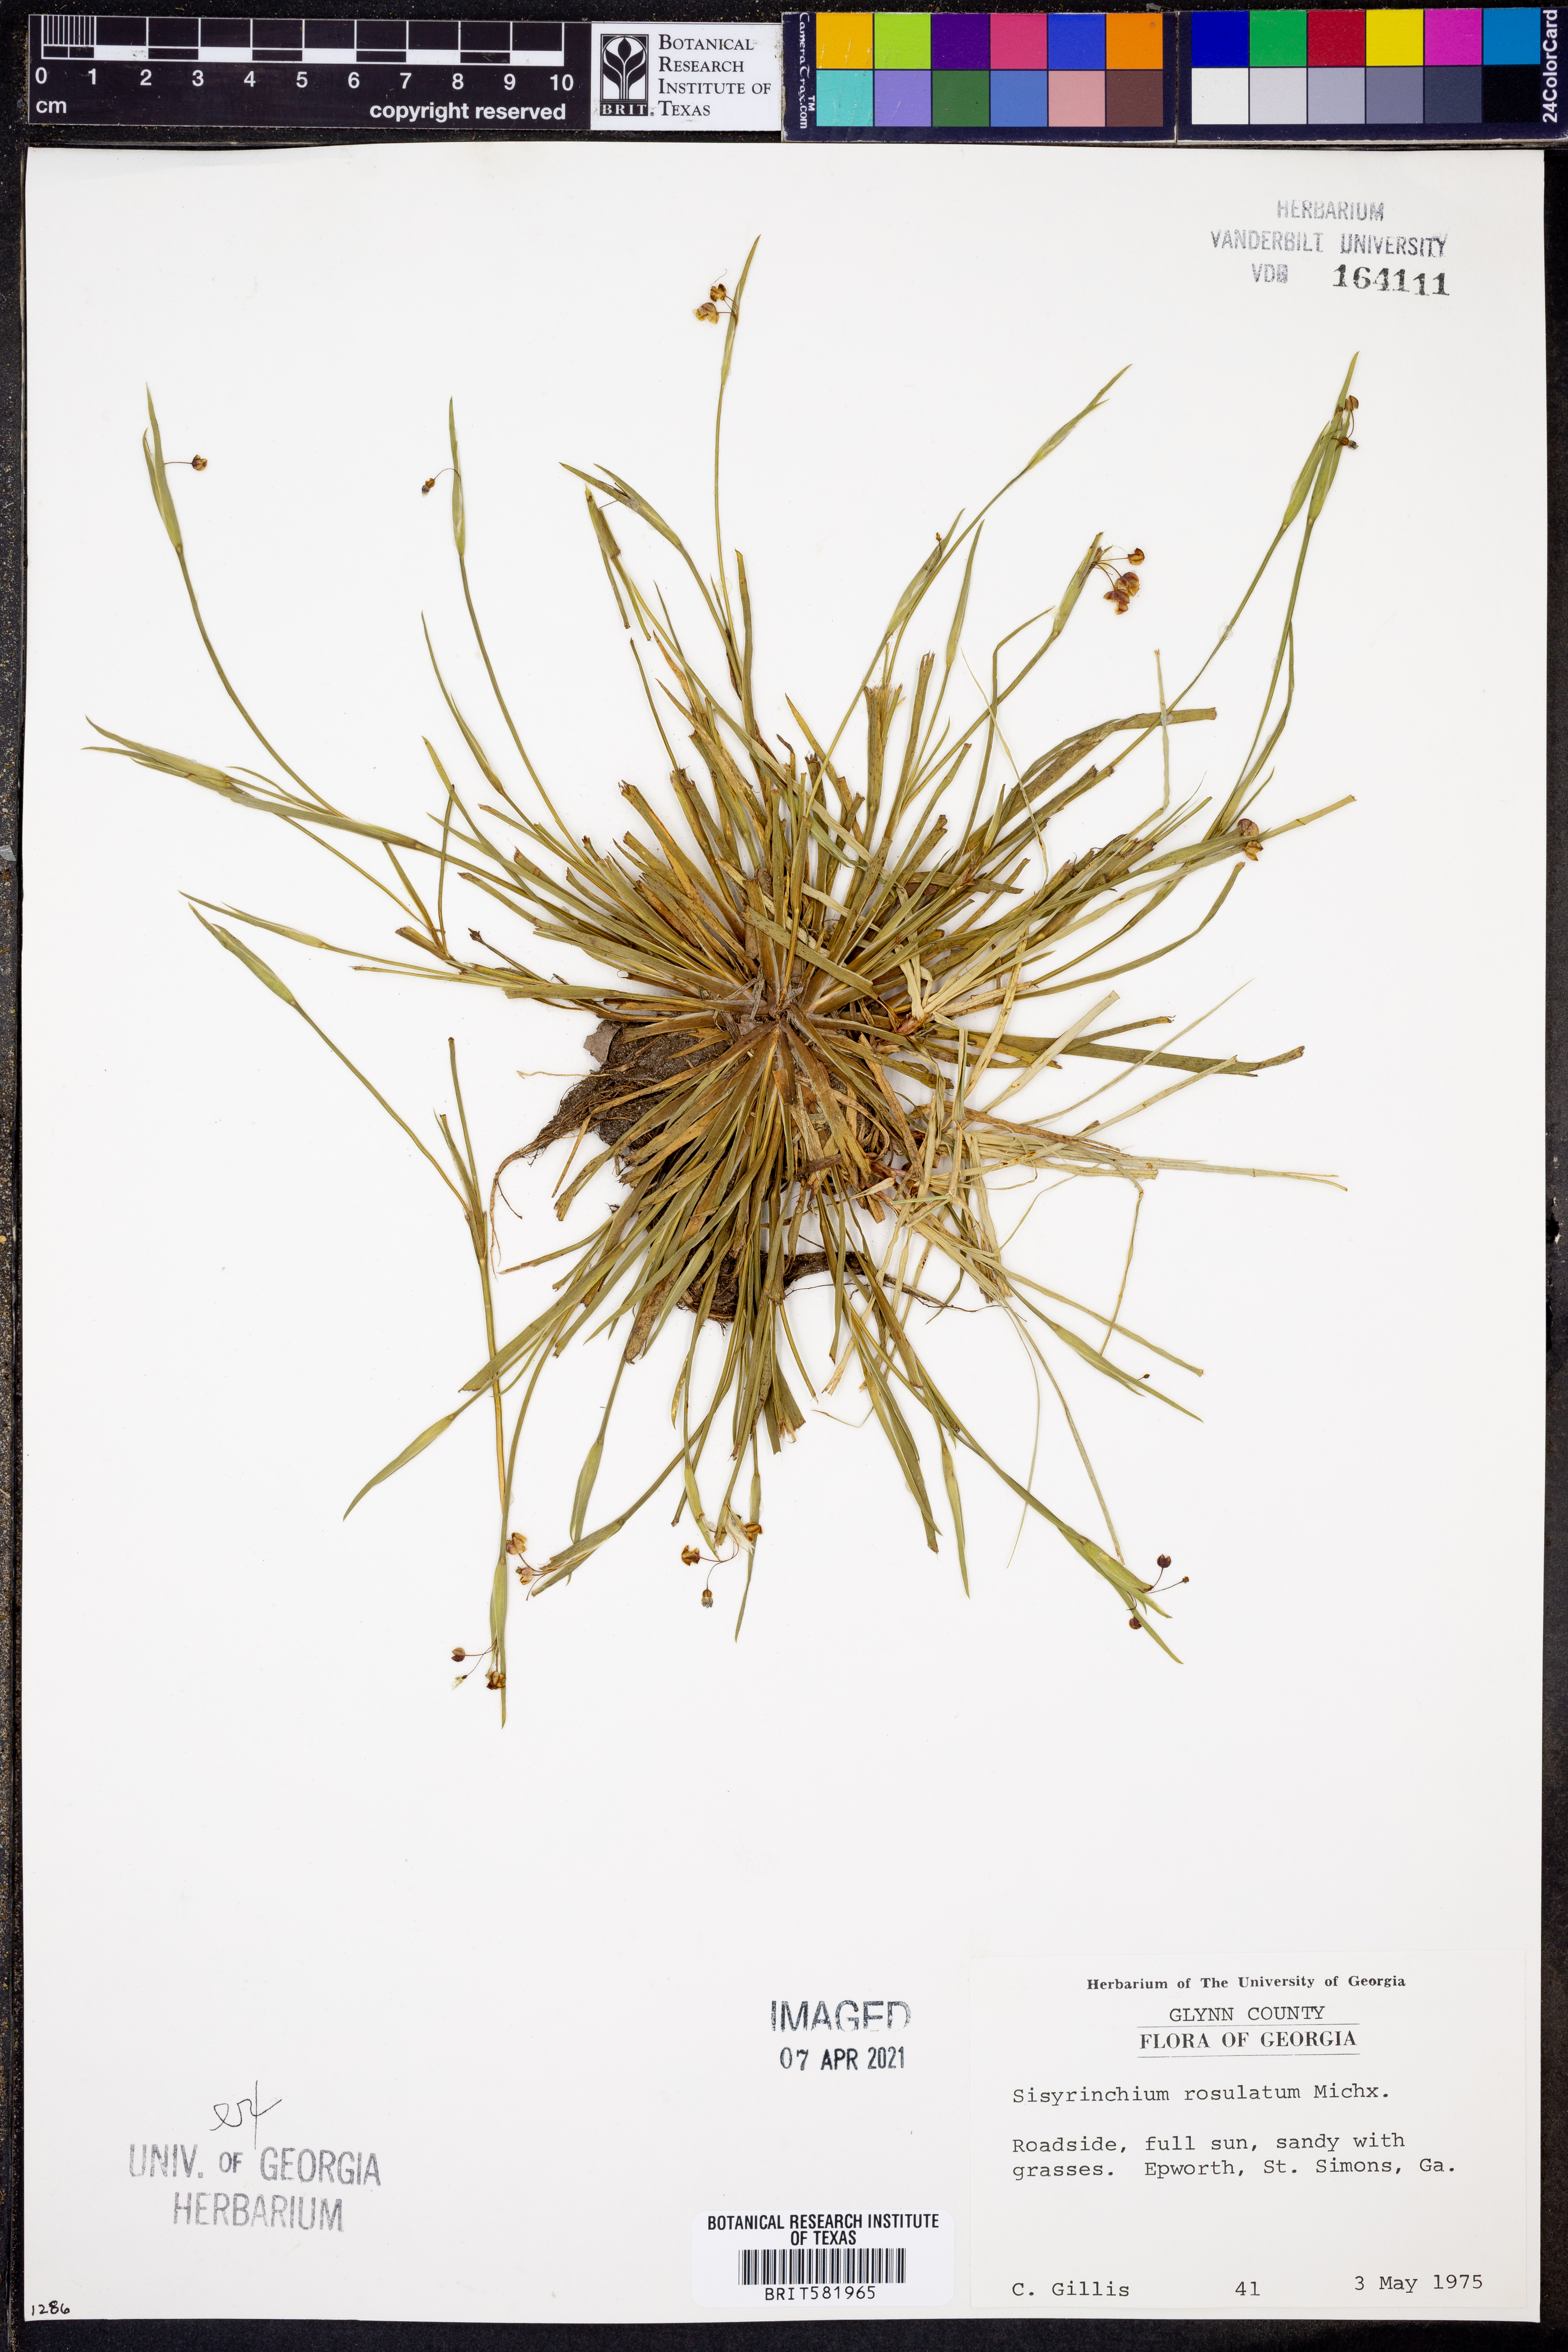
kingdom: Plantae
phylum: Tracheophyta
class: Liliopsida
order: Asparagales
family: Iridaceae
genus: Sisyrinchium
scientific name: Sisyrinchium rosulatum
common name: Annual blue-eyed grass
